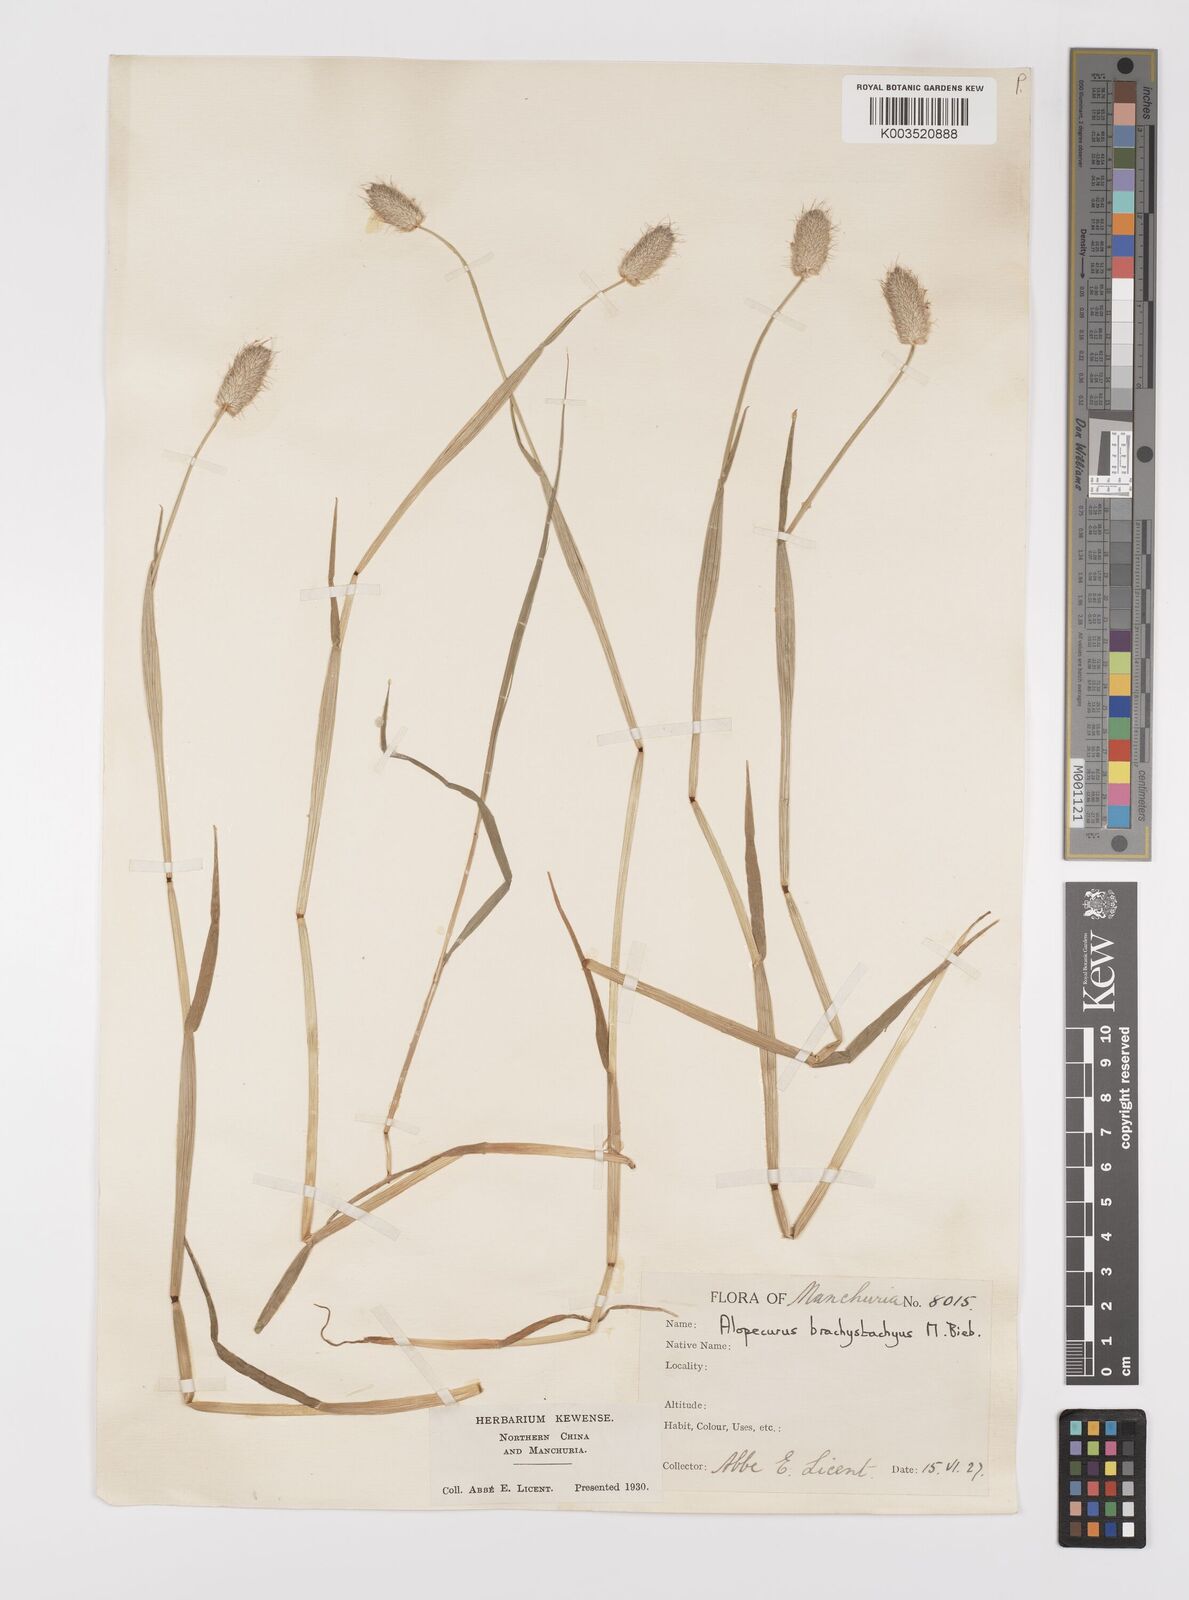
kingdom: Plantae
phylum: Tracheophyta
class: Liliopsida
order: Poales
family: Poaceae
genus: Alopecurus
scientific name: Alopecurus brachystachyus
